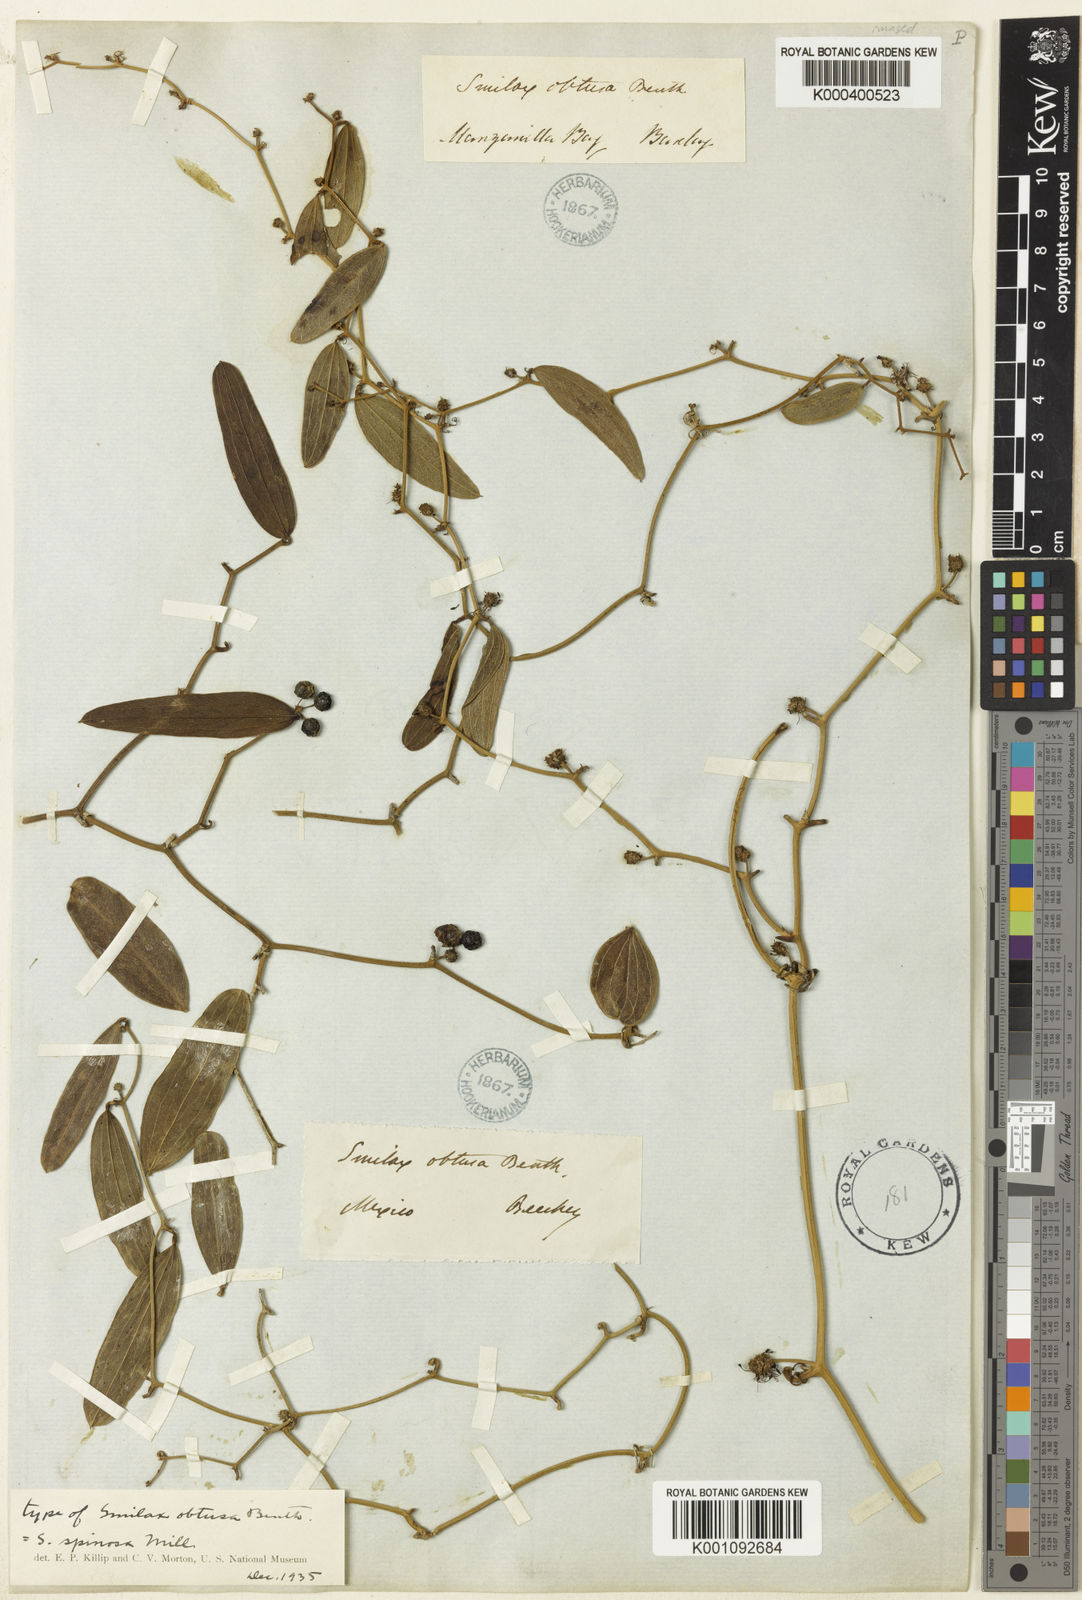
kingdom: Plantae
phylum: Tracheophyta
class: Liliopsida
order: Liliales
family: Smilacaceae
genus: Smilax
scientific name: Smilax spinosa
